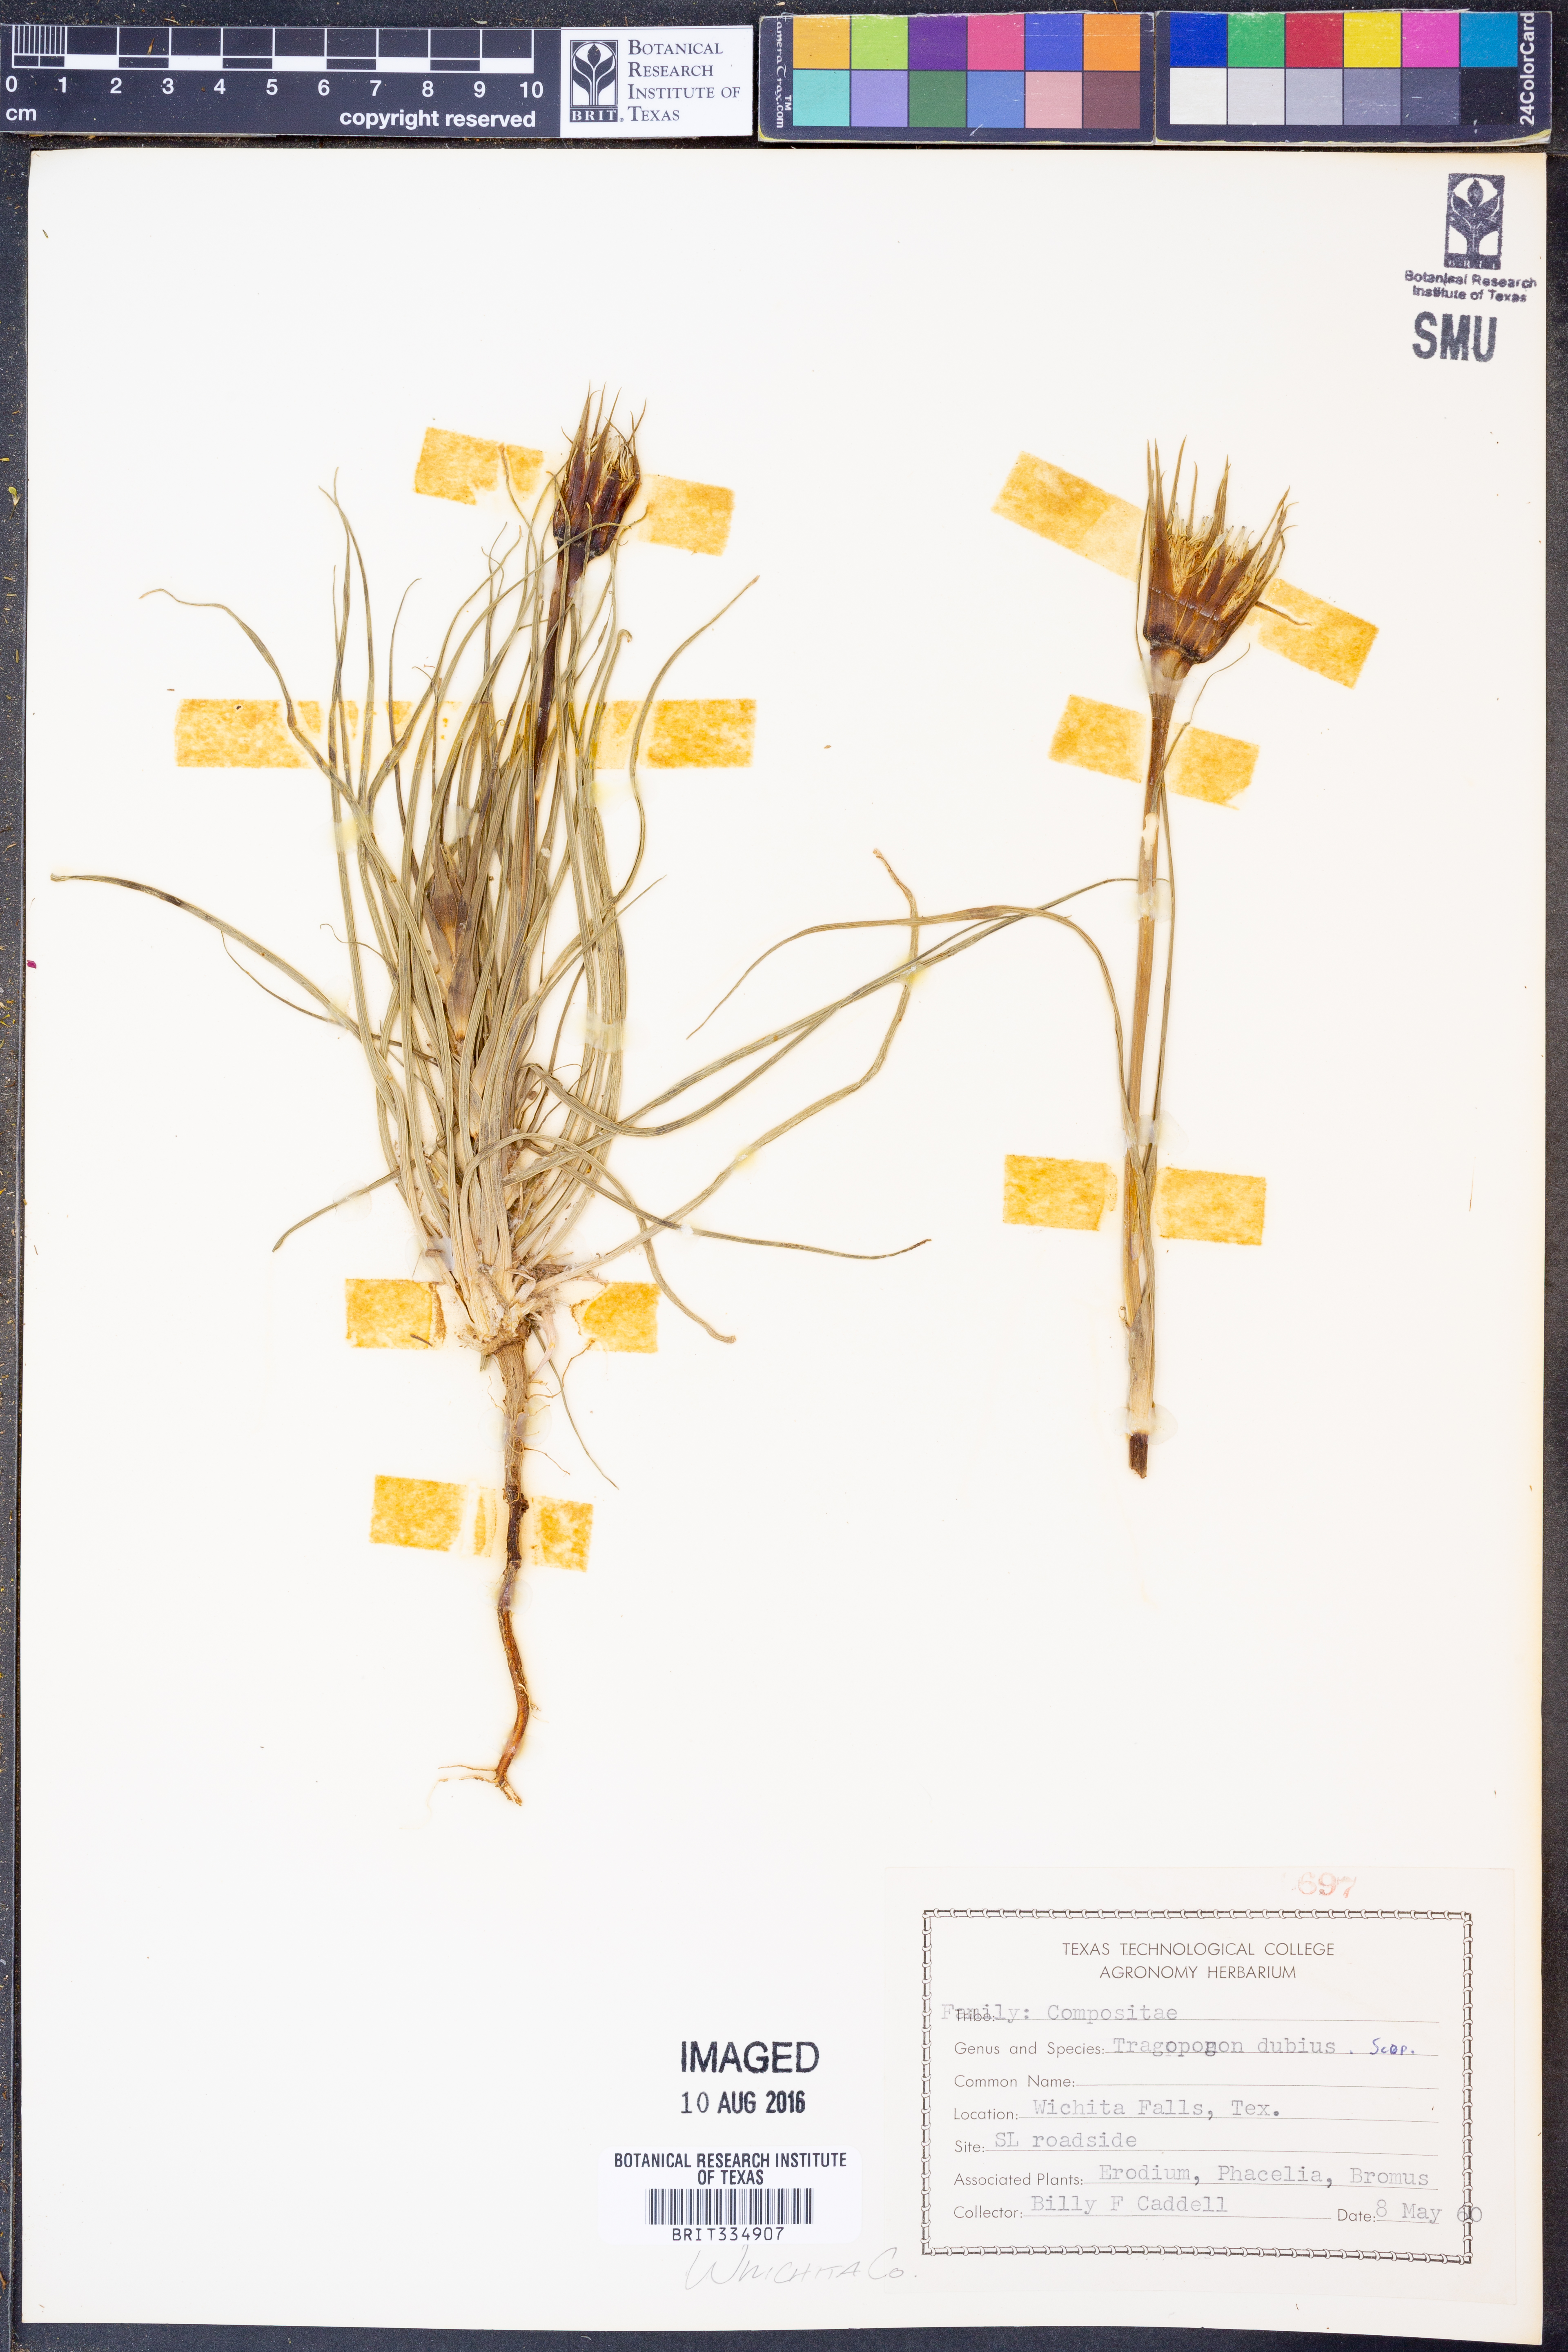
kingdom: Plantae
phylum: Tracheophyta
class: Magnoliopsida
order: Asterales
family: Asteraceae
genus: Tragopogon
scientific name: Tragopogon dubius
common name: Yellow salsify
